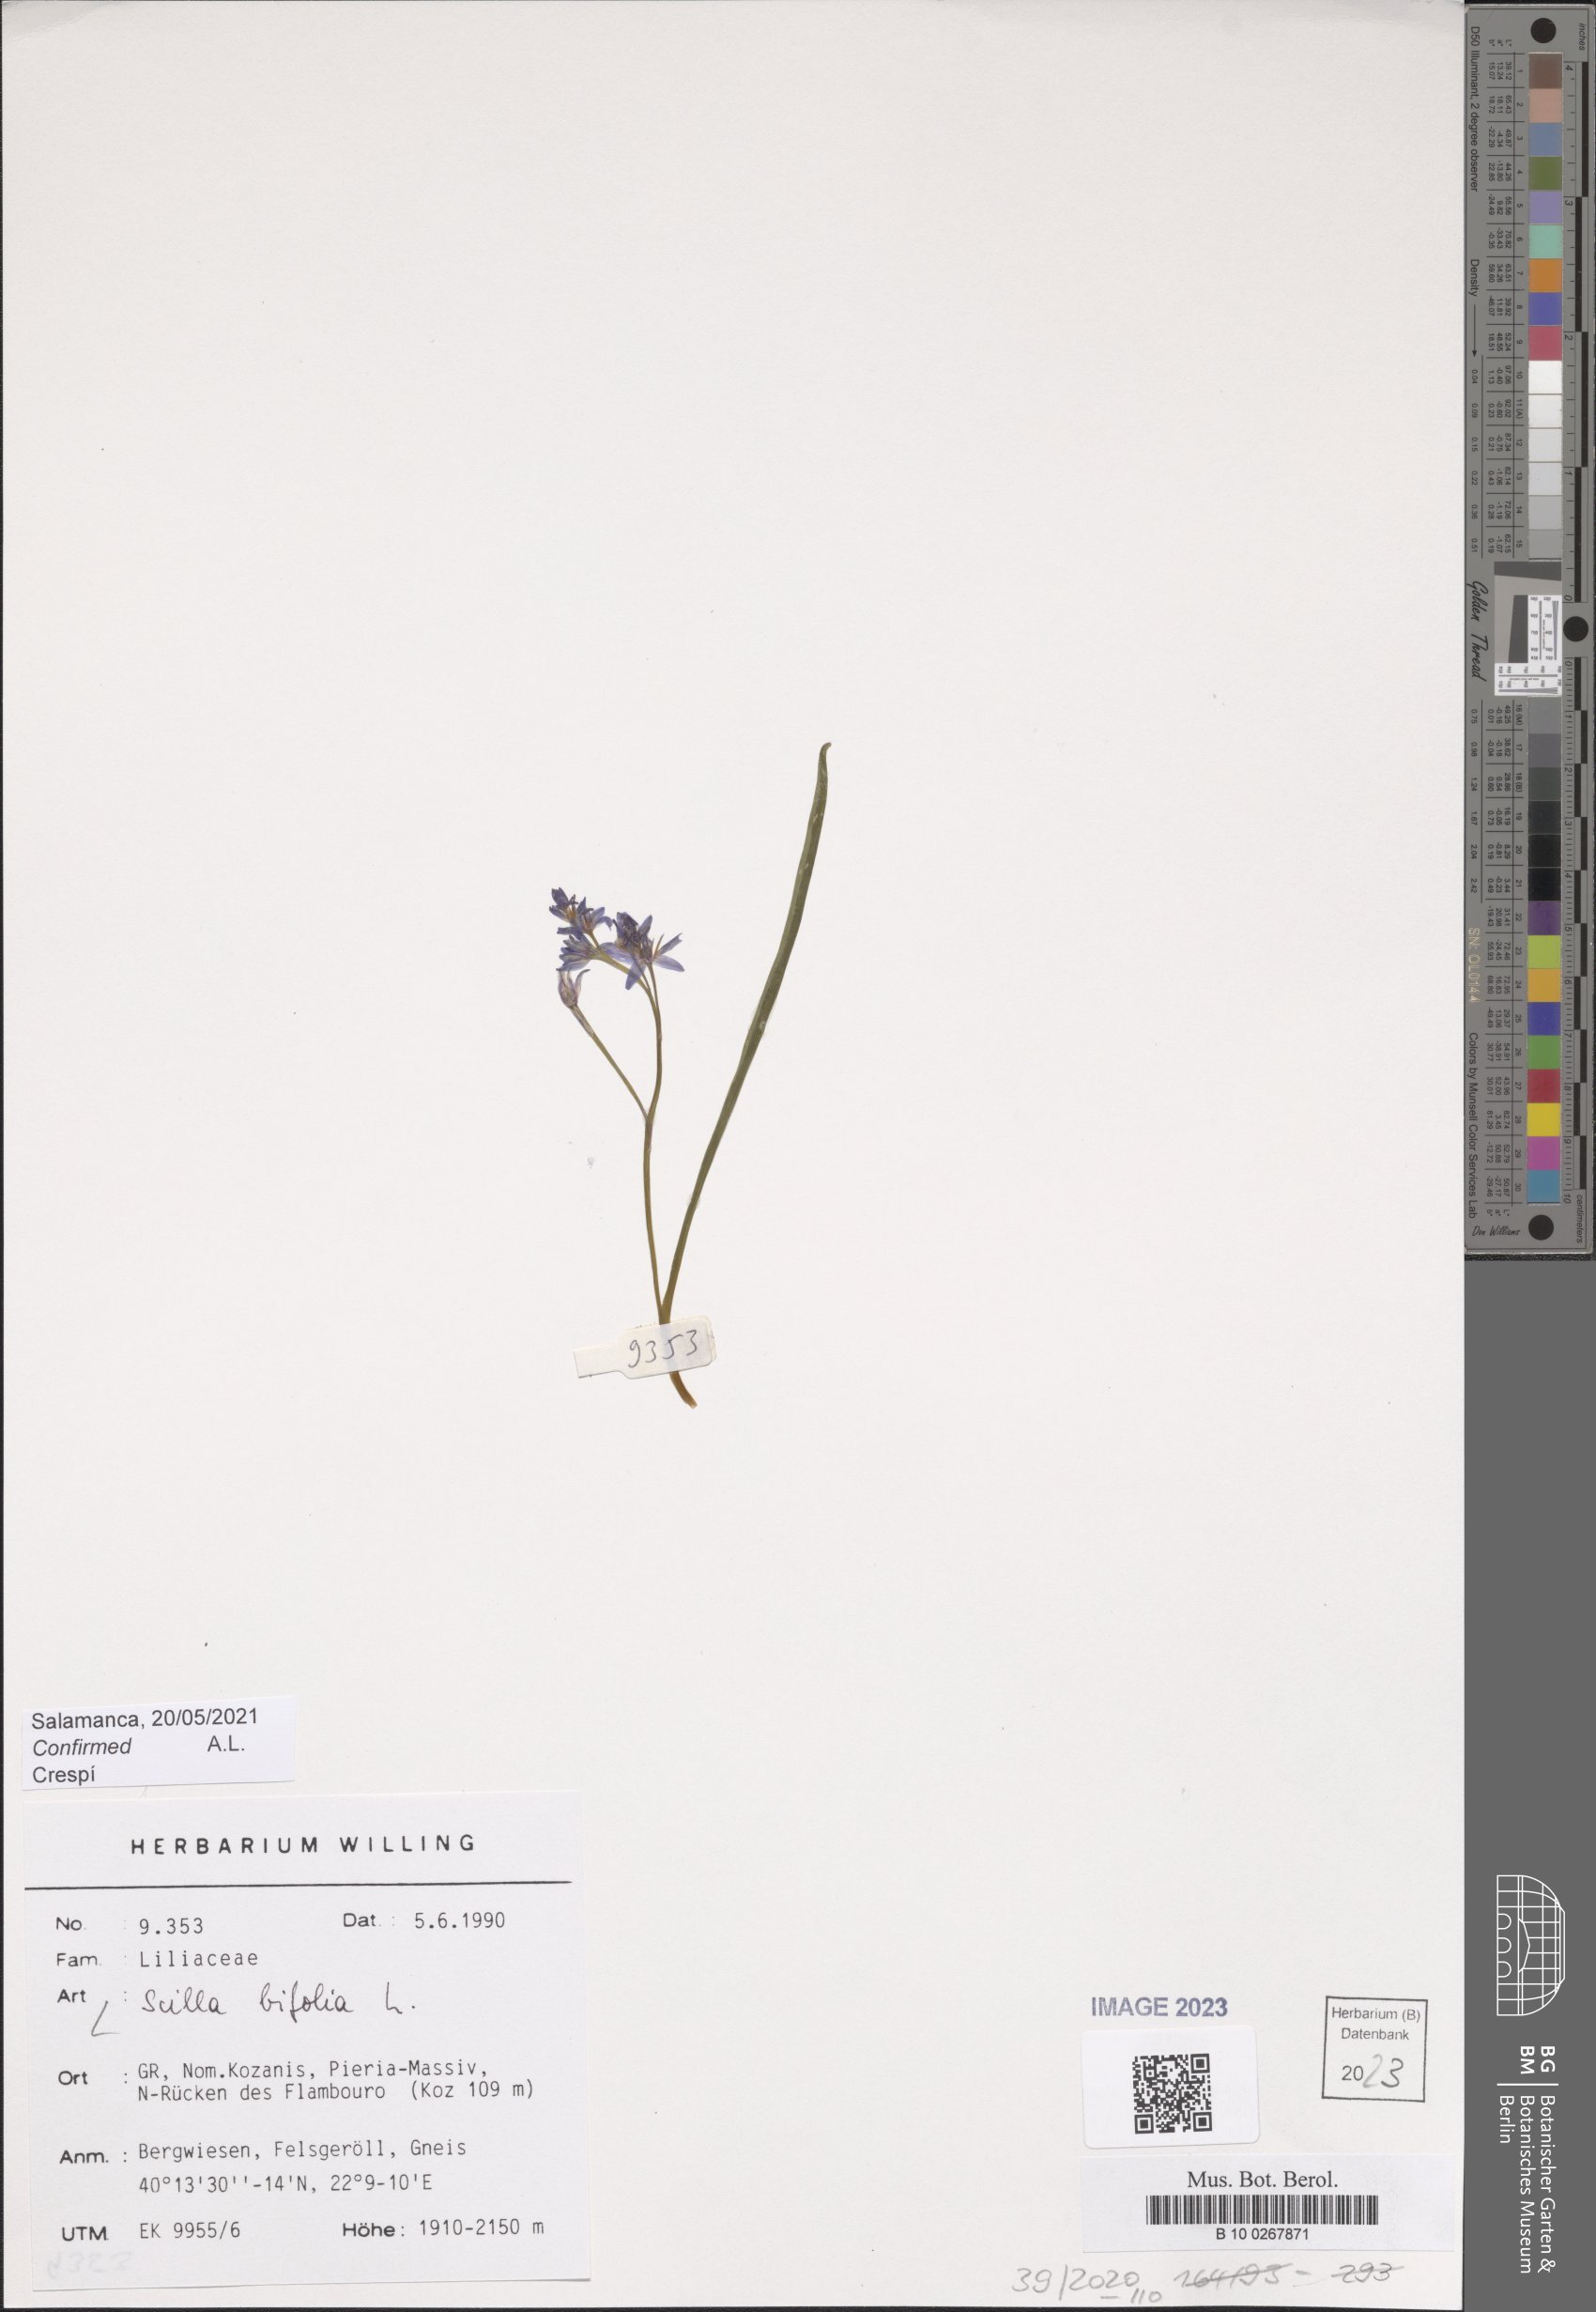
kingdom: Plantae
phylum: Tracheophyta
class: Liliopsida
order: Asparagales
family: Asparagaceae
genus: Scilla
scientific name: Scilla bifolia
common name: Alpine squill
